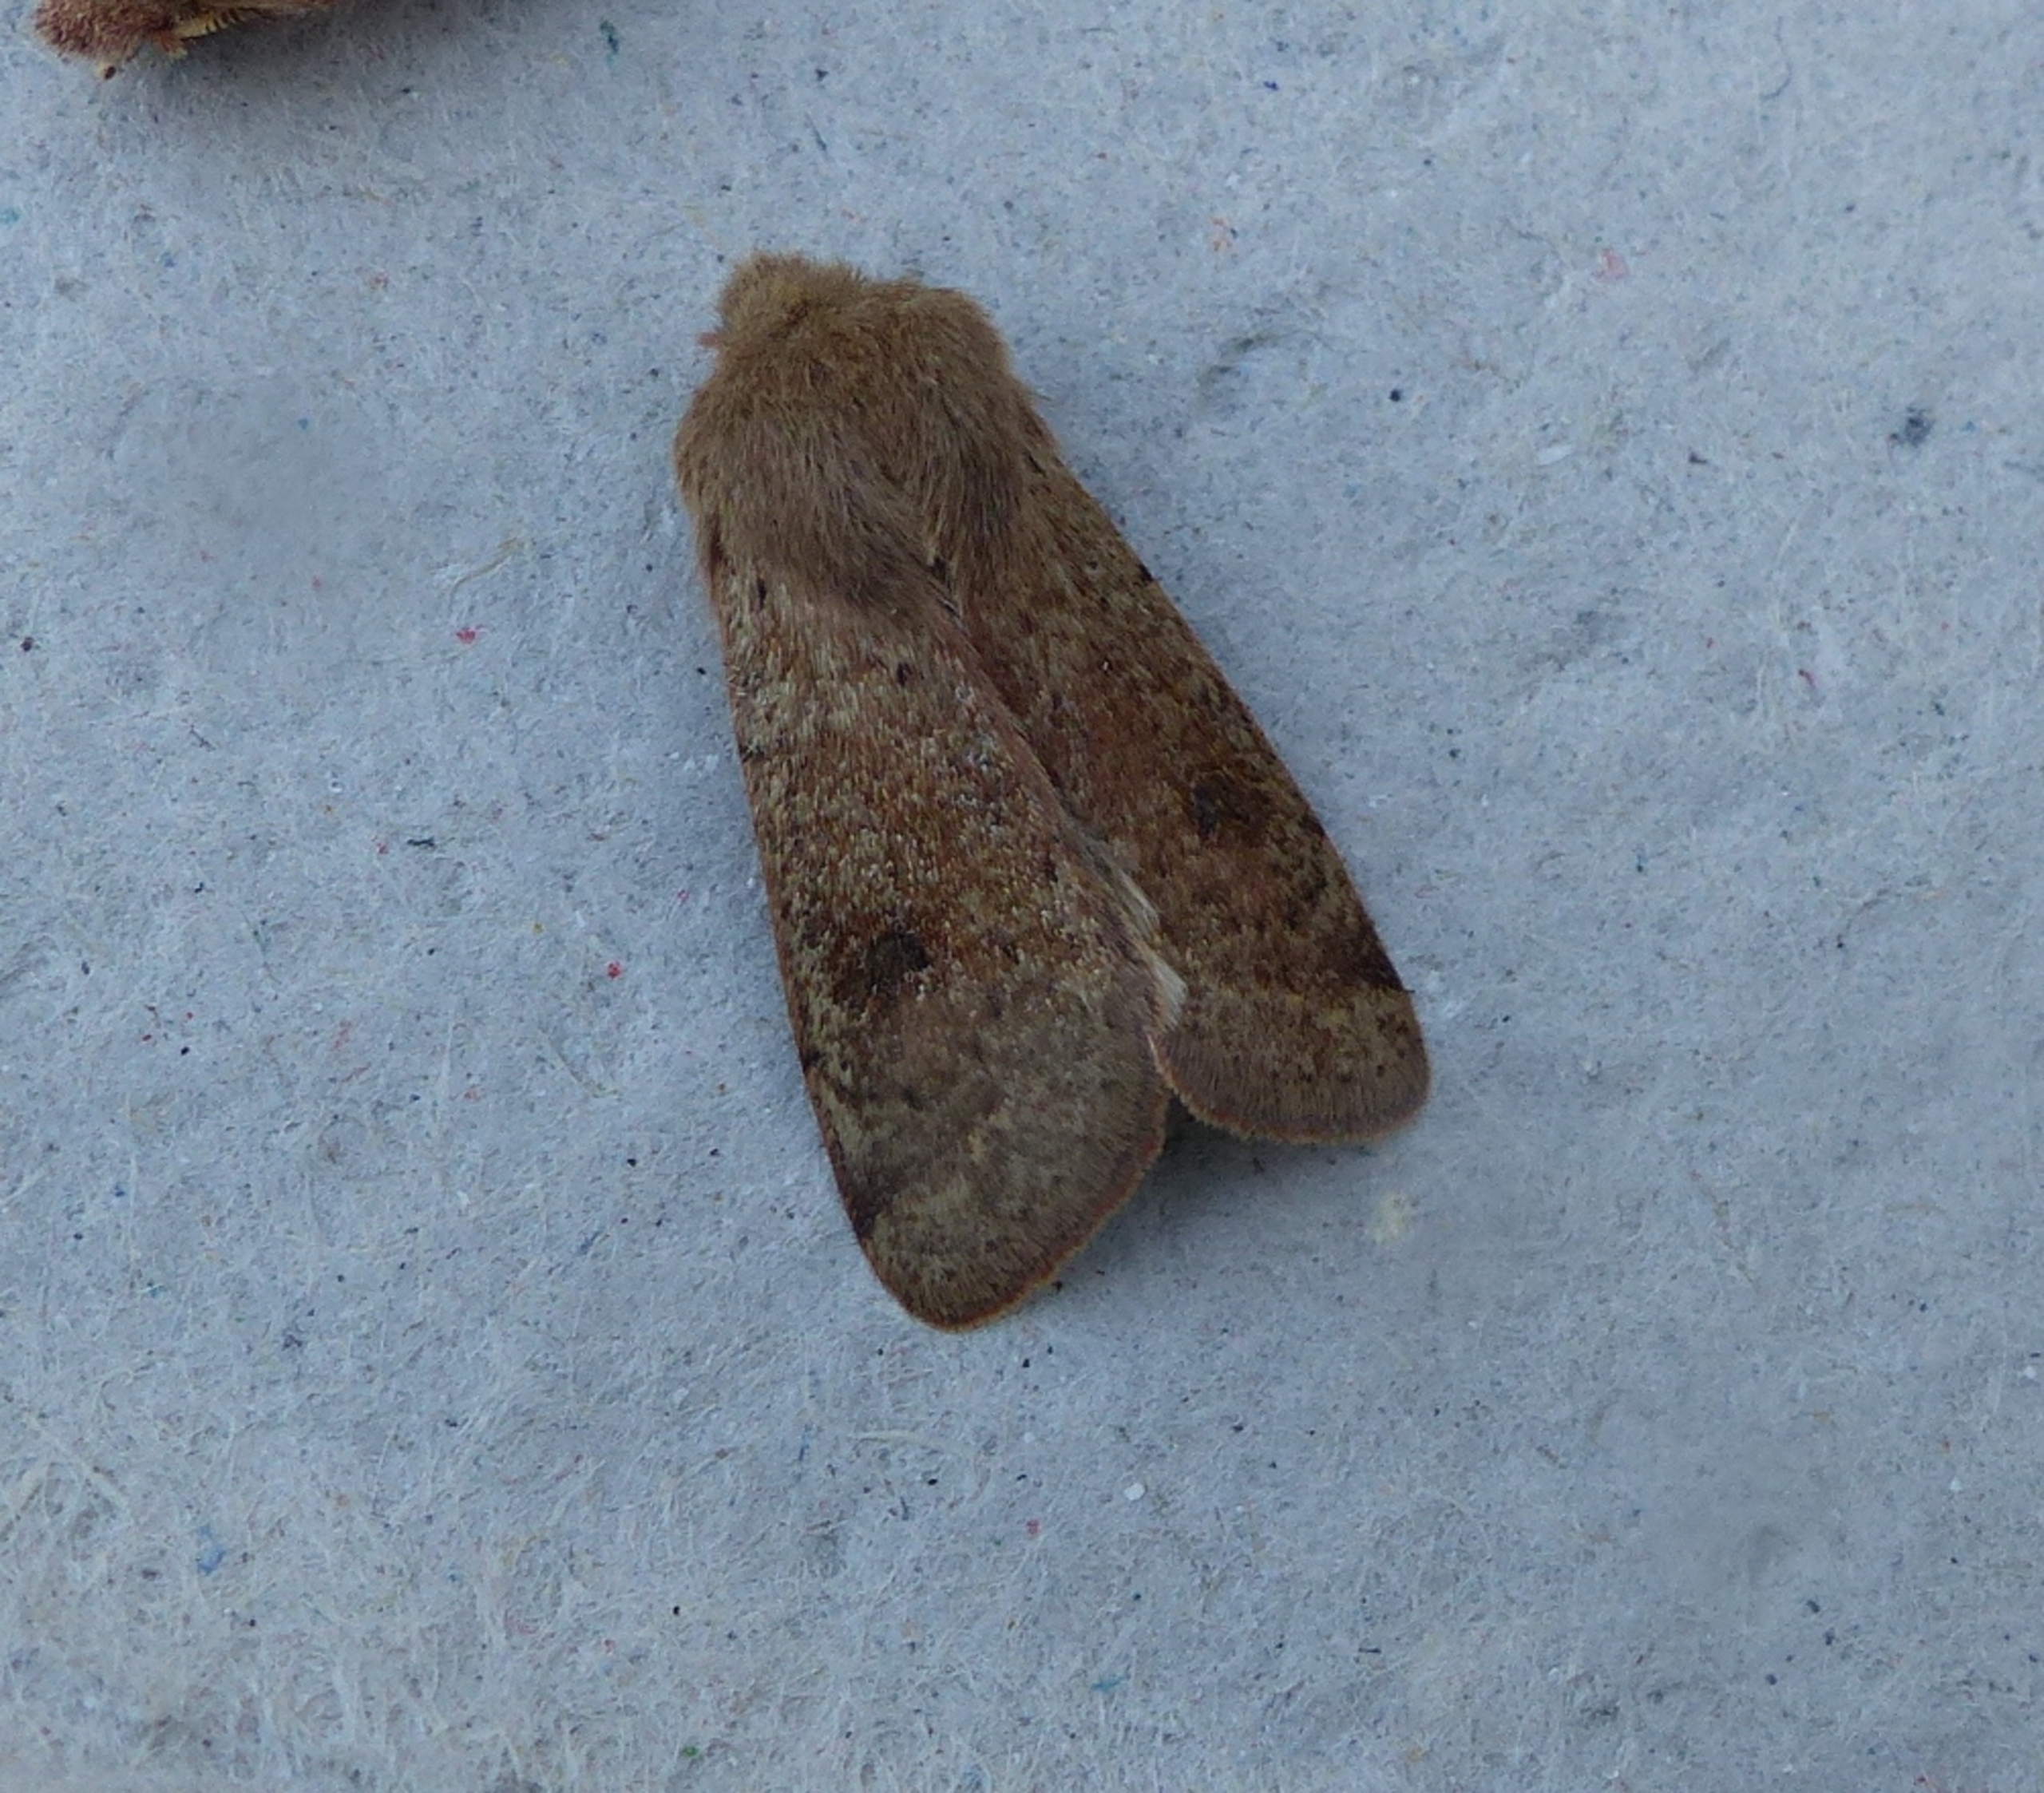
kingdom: Animalia
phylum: Arthropoda
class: Insecta
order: Lepidoptera
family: Noctuidae
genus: Orthosia
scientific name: Orthosia cruda
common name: Lille forårsugle
